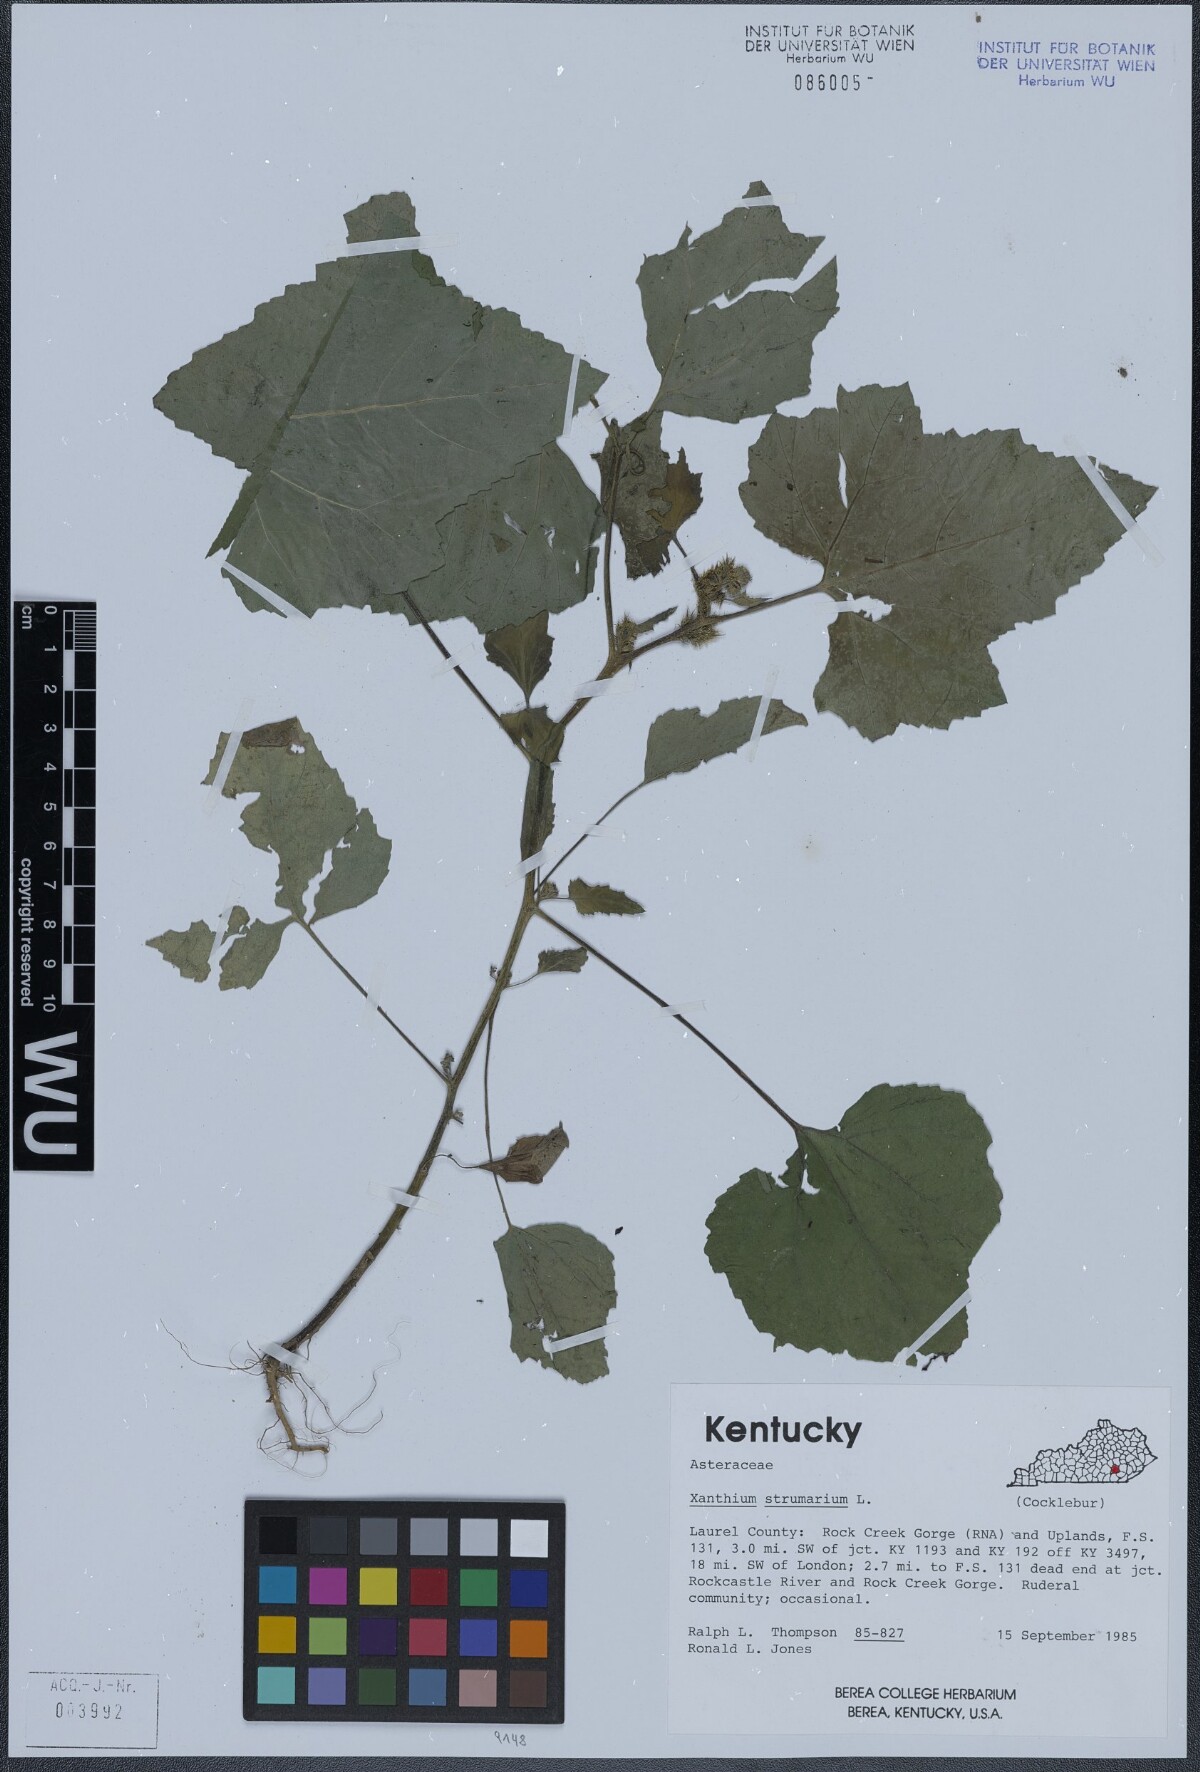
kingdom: Plantae
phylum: Tracheophyta
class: Magnoliopsida
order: Asterales
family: Asteraceae
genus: Xanthium
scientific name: Xanthium strumarium
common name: Rough cocklebur
